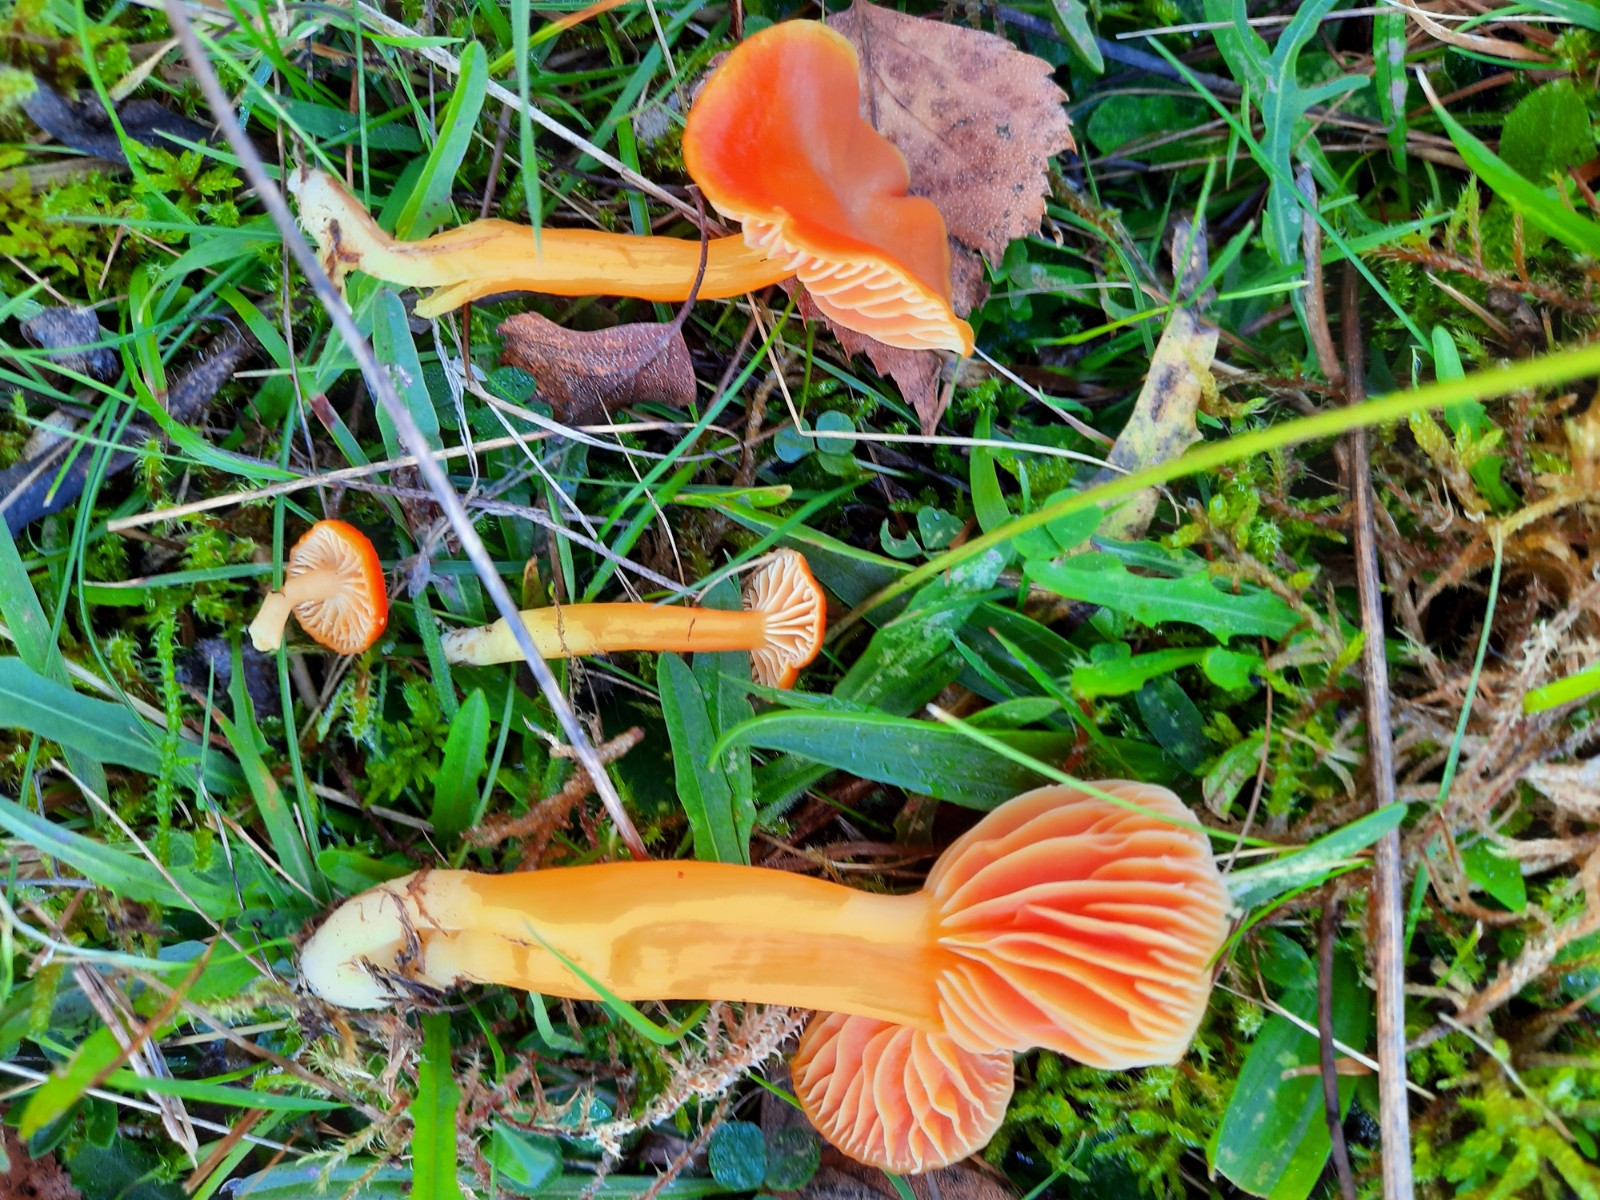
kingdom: Fungi
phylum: Basidiomycota
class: Agaricomycetes
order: Agaricales
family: Hygrophoraceae
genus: Hygrocybe
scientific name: Hygrocybe reidii
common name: honning-vokshat
